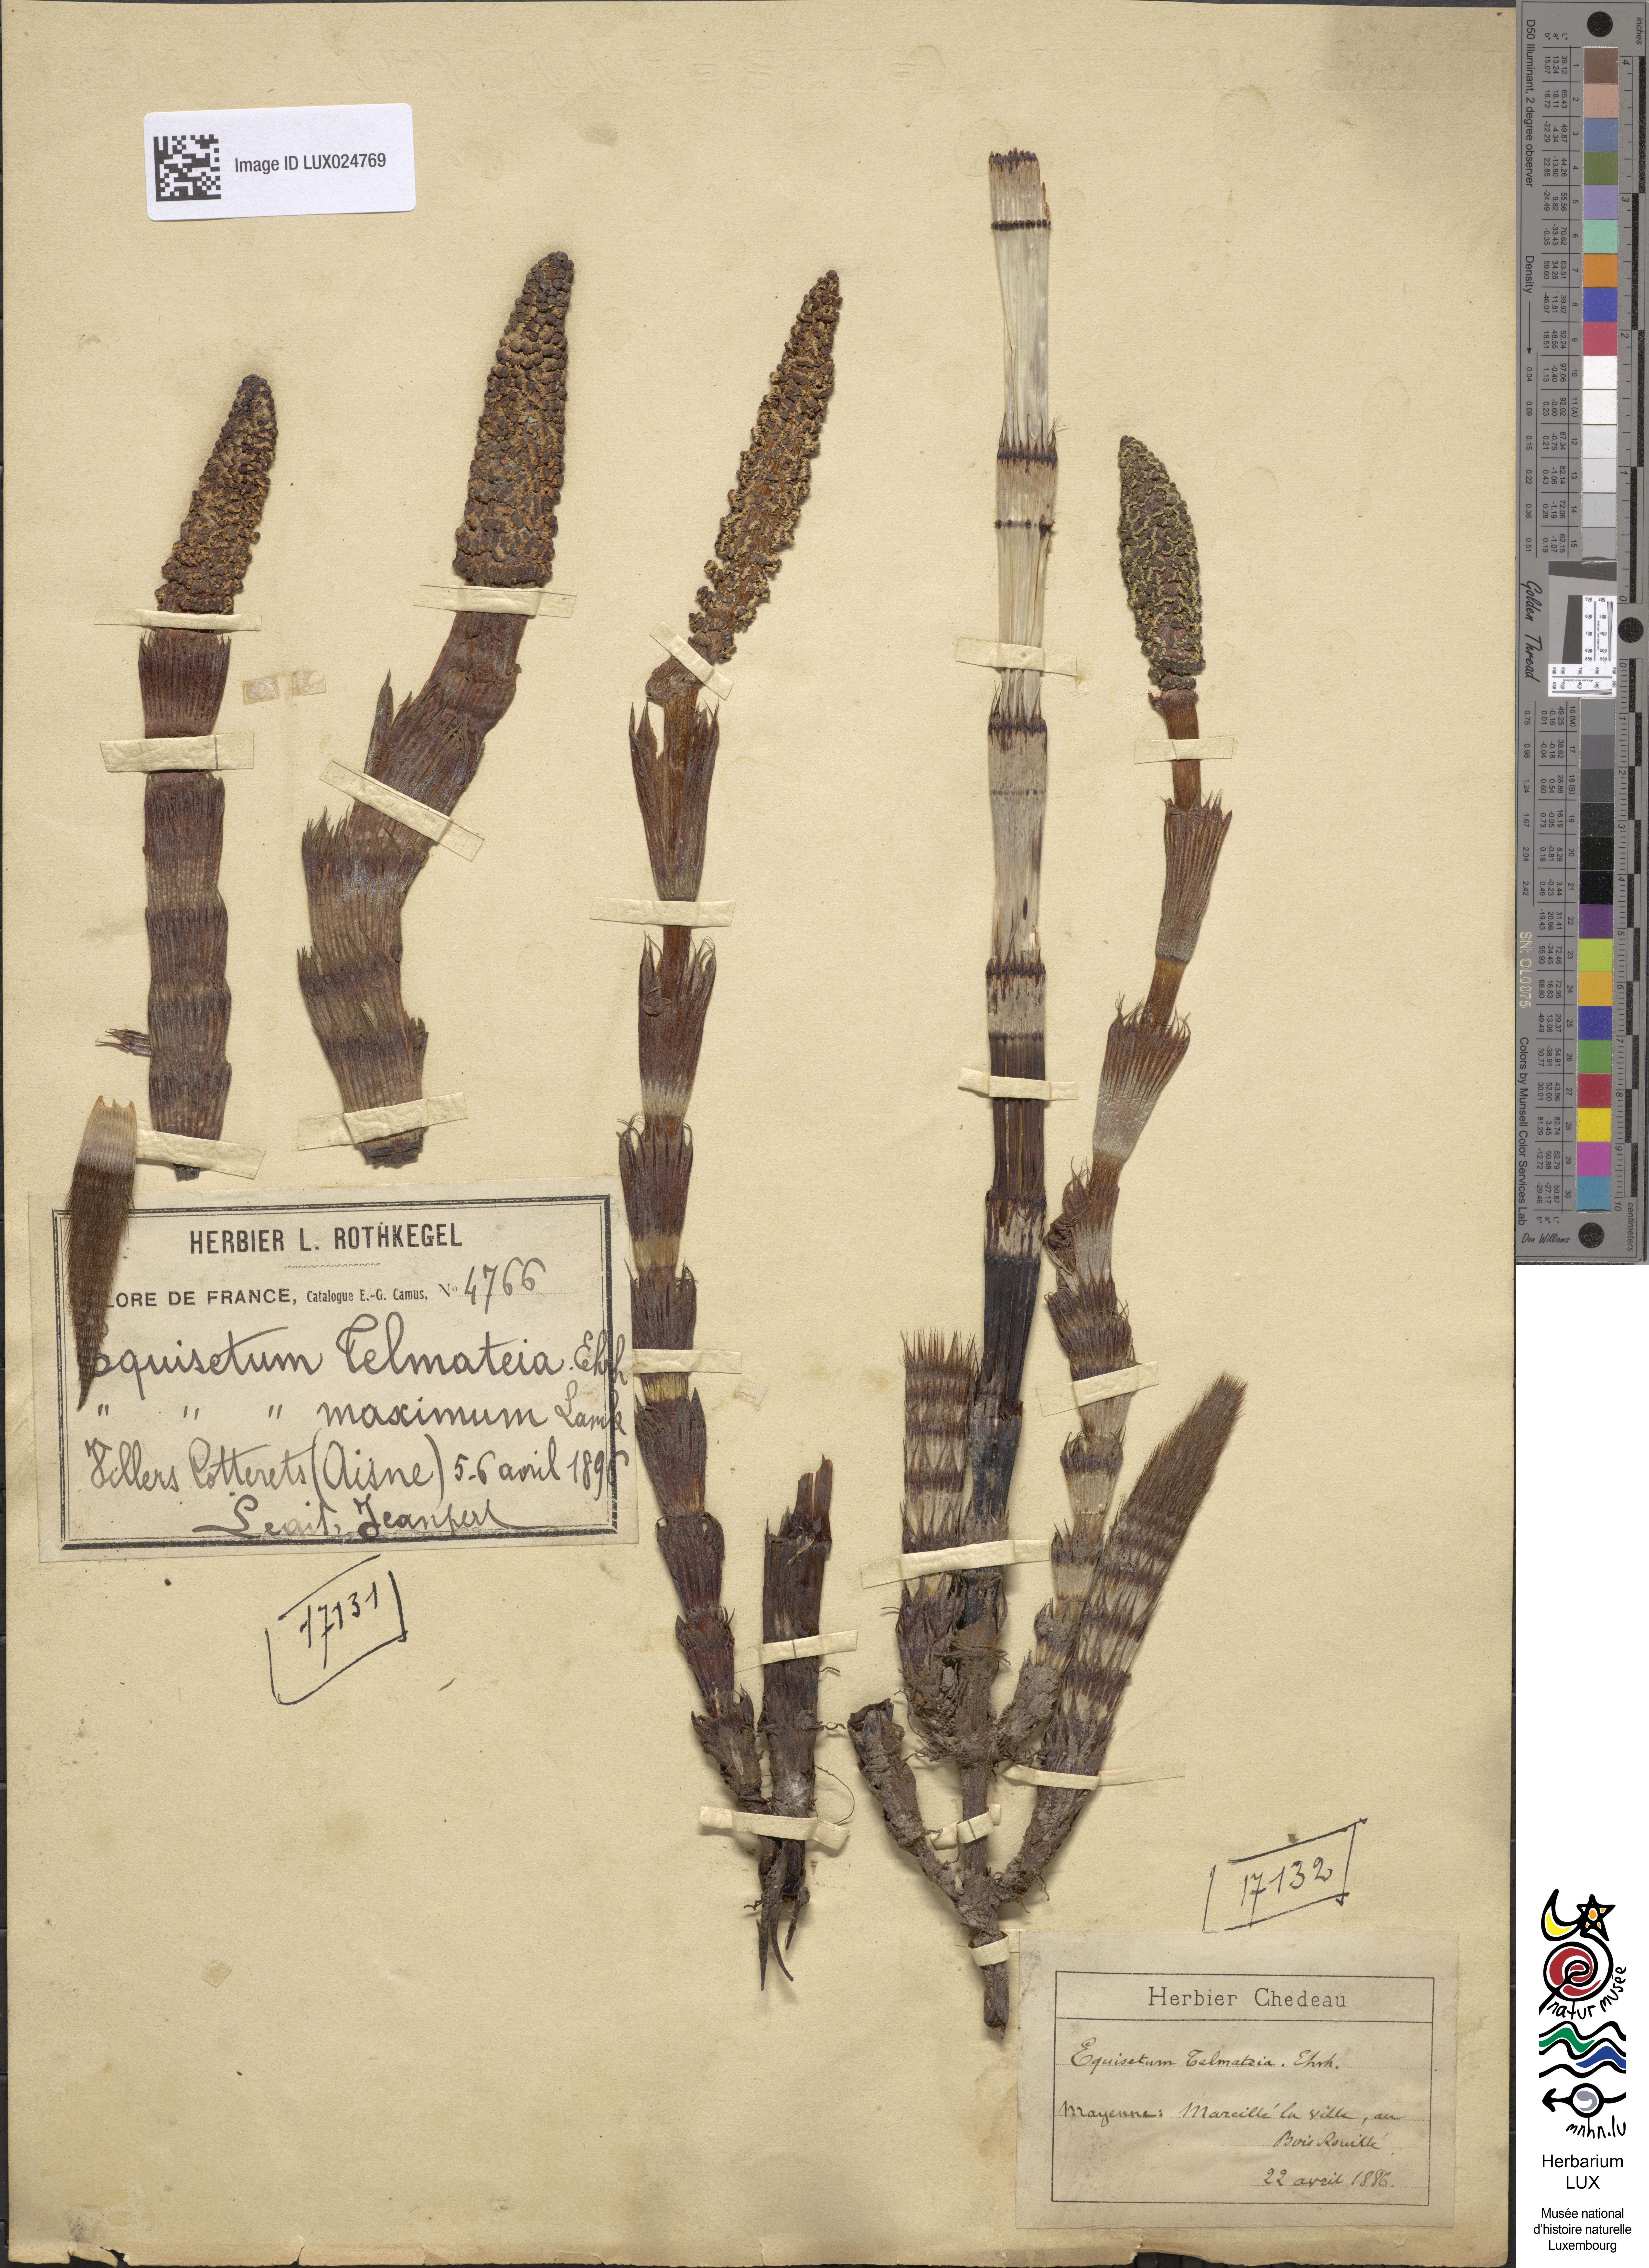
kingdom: Plantae
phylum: Tracheophyta
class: Polypodiopsida
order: Equisetales
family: Equisetaceae
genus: Equisetum
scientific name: Equisetum telmateia
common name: Great horsetail
